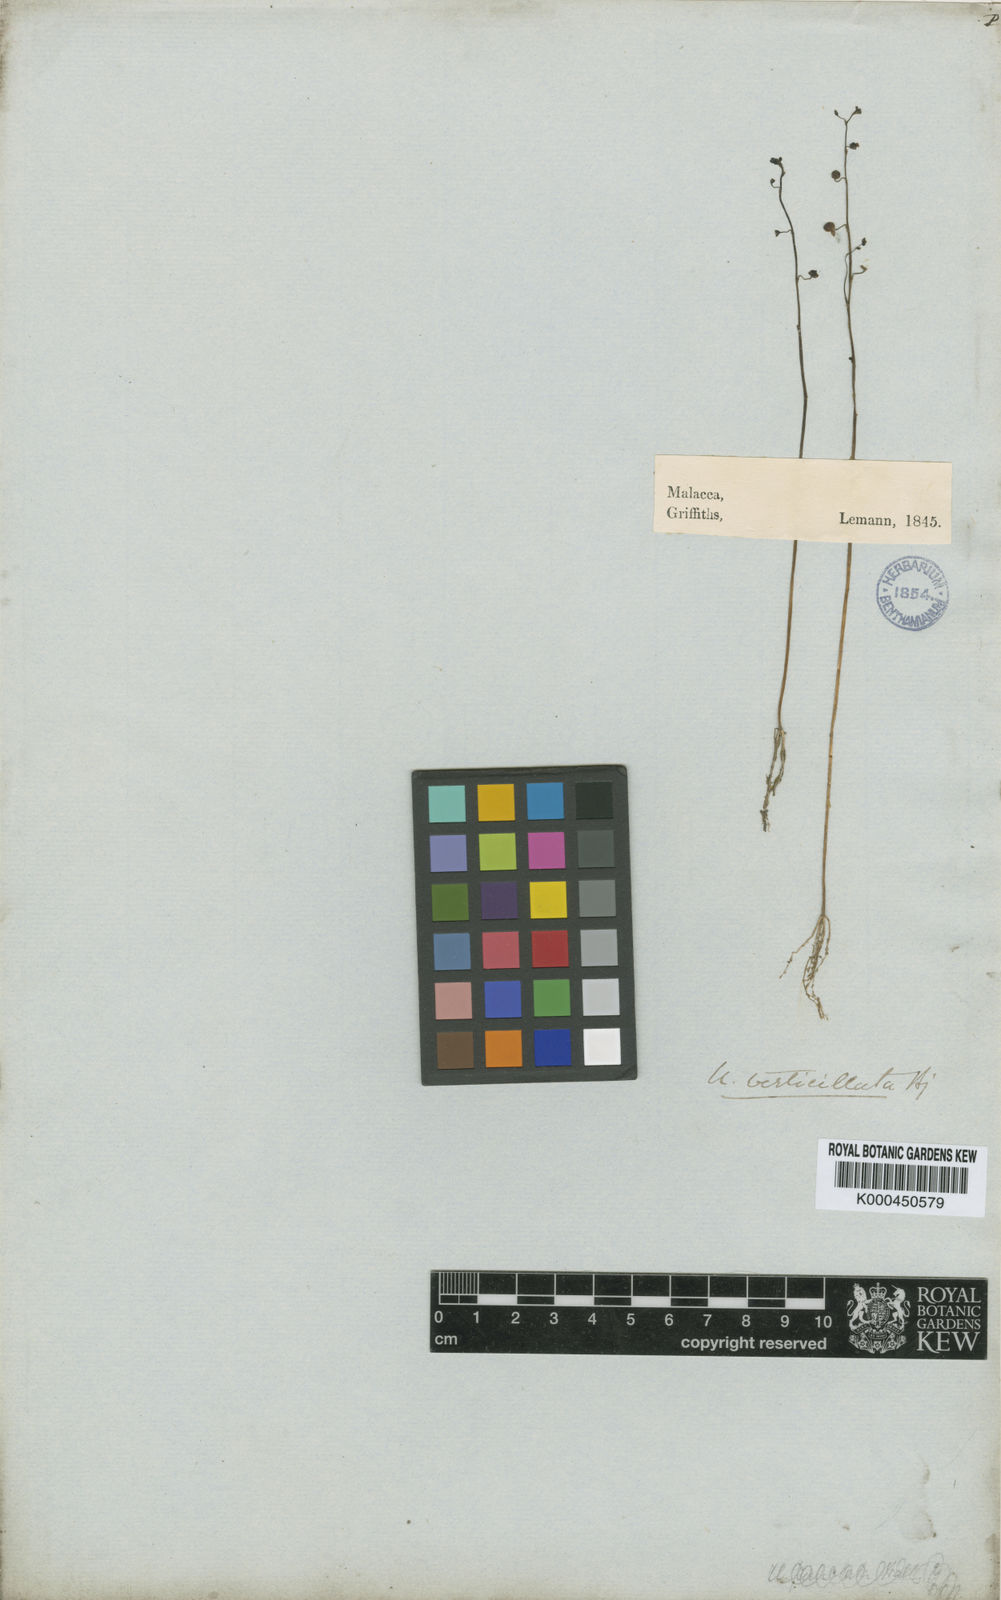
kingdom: Plantae
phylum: Tracheophyta
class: Magnoliopsida
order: Lamiales
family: Lentibulariaceae
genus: Utricularia
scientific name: Utricularia limosa
